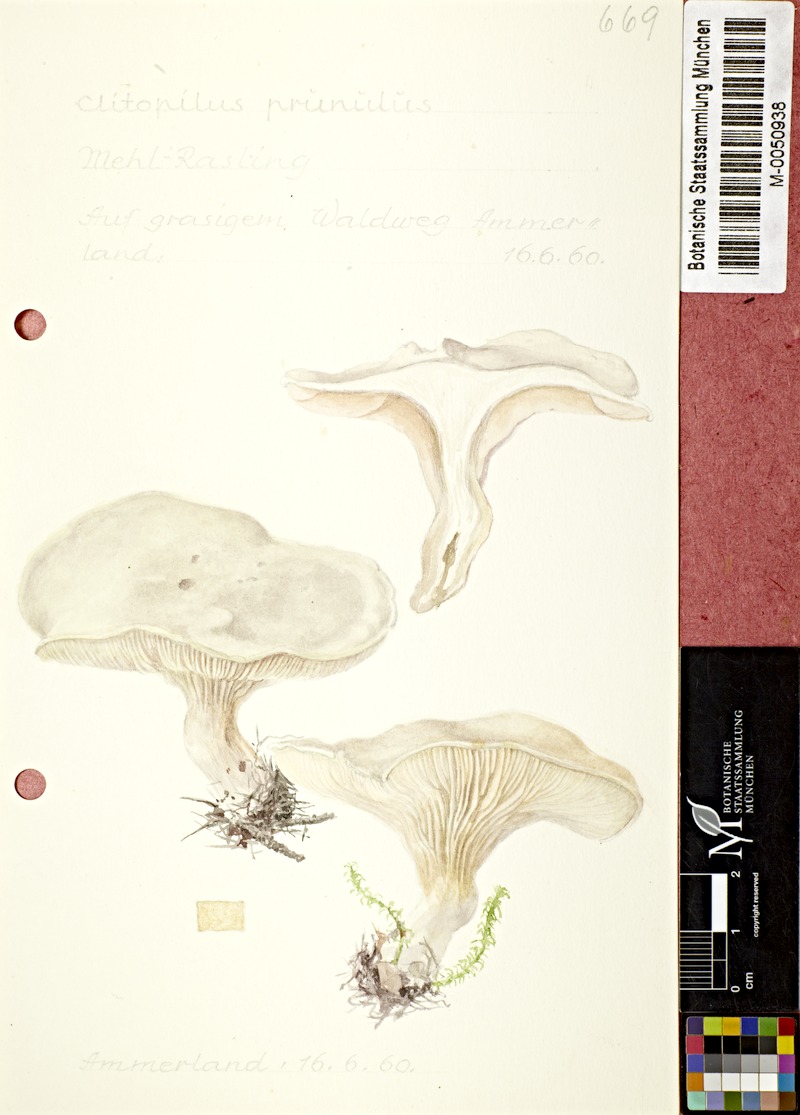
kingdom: Fungi
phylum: Basidiomycota
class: Agaricomycetes
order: Agaricales
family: Entolomataceae
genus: Clitopilus
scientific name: Clitopilus prunulus
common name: The miller
